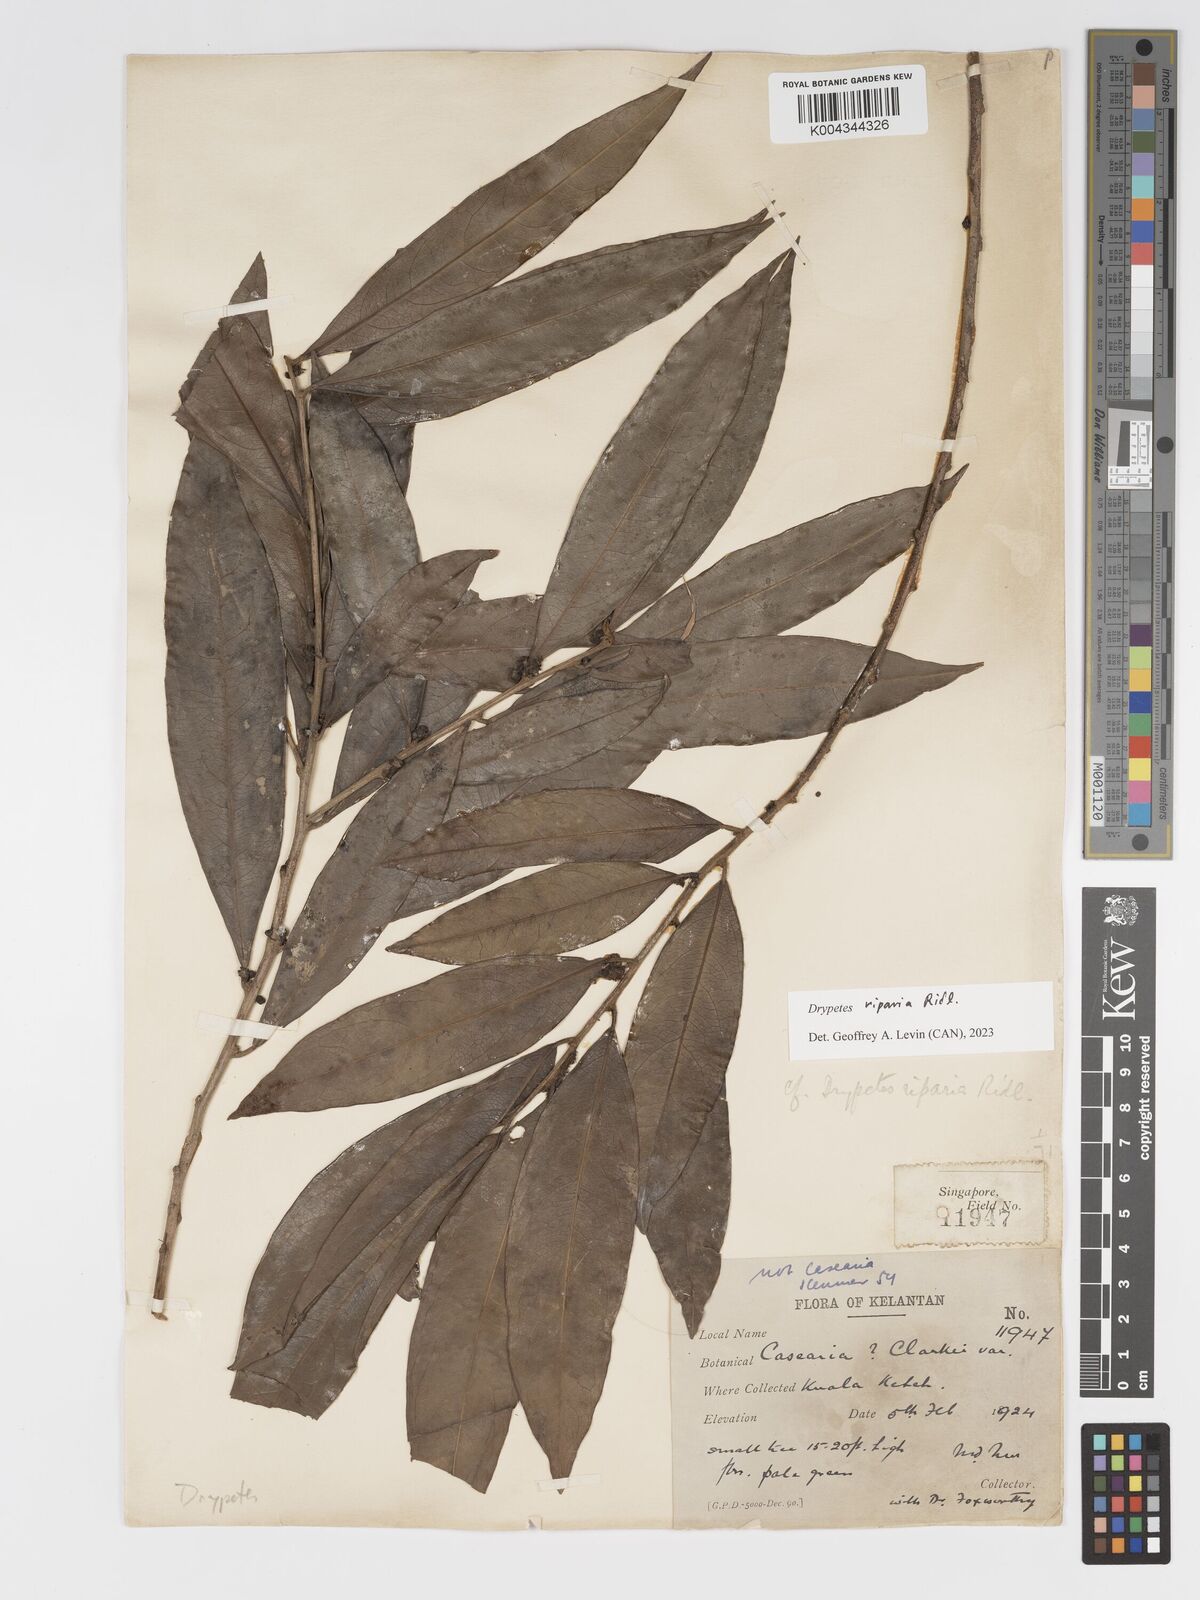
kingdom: Plantae
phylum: Tracheophyta
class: Magnoliopsida
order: Malpighiales
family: Putranjivaceae
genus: Drypetes
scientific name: Drypetes riparia
